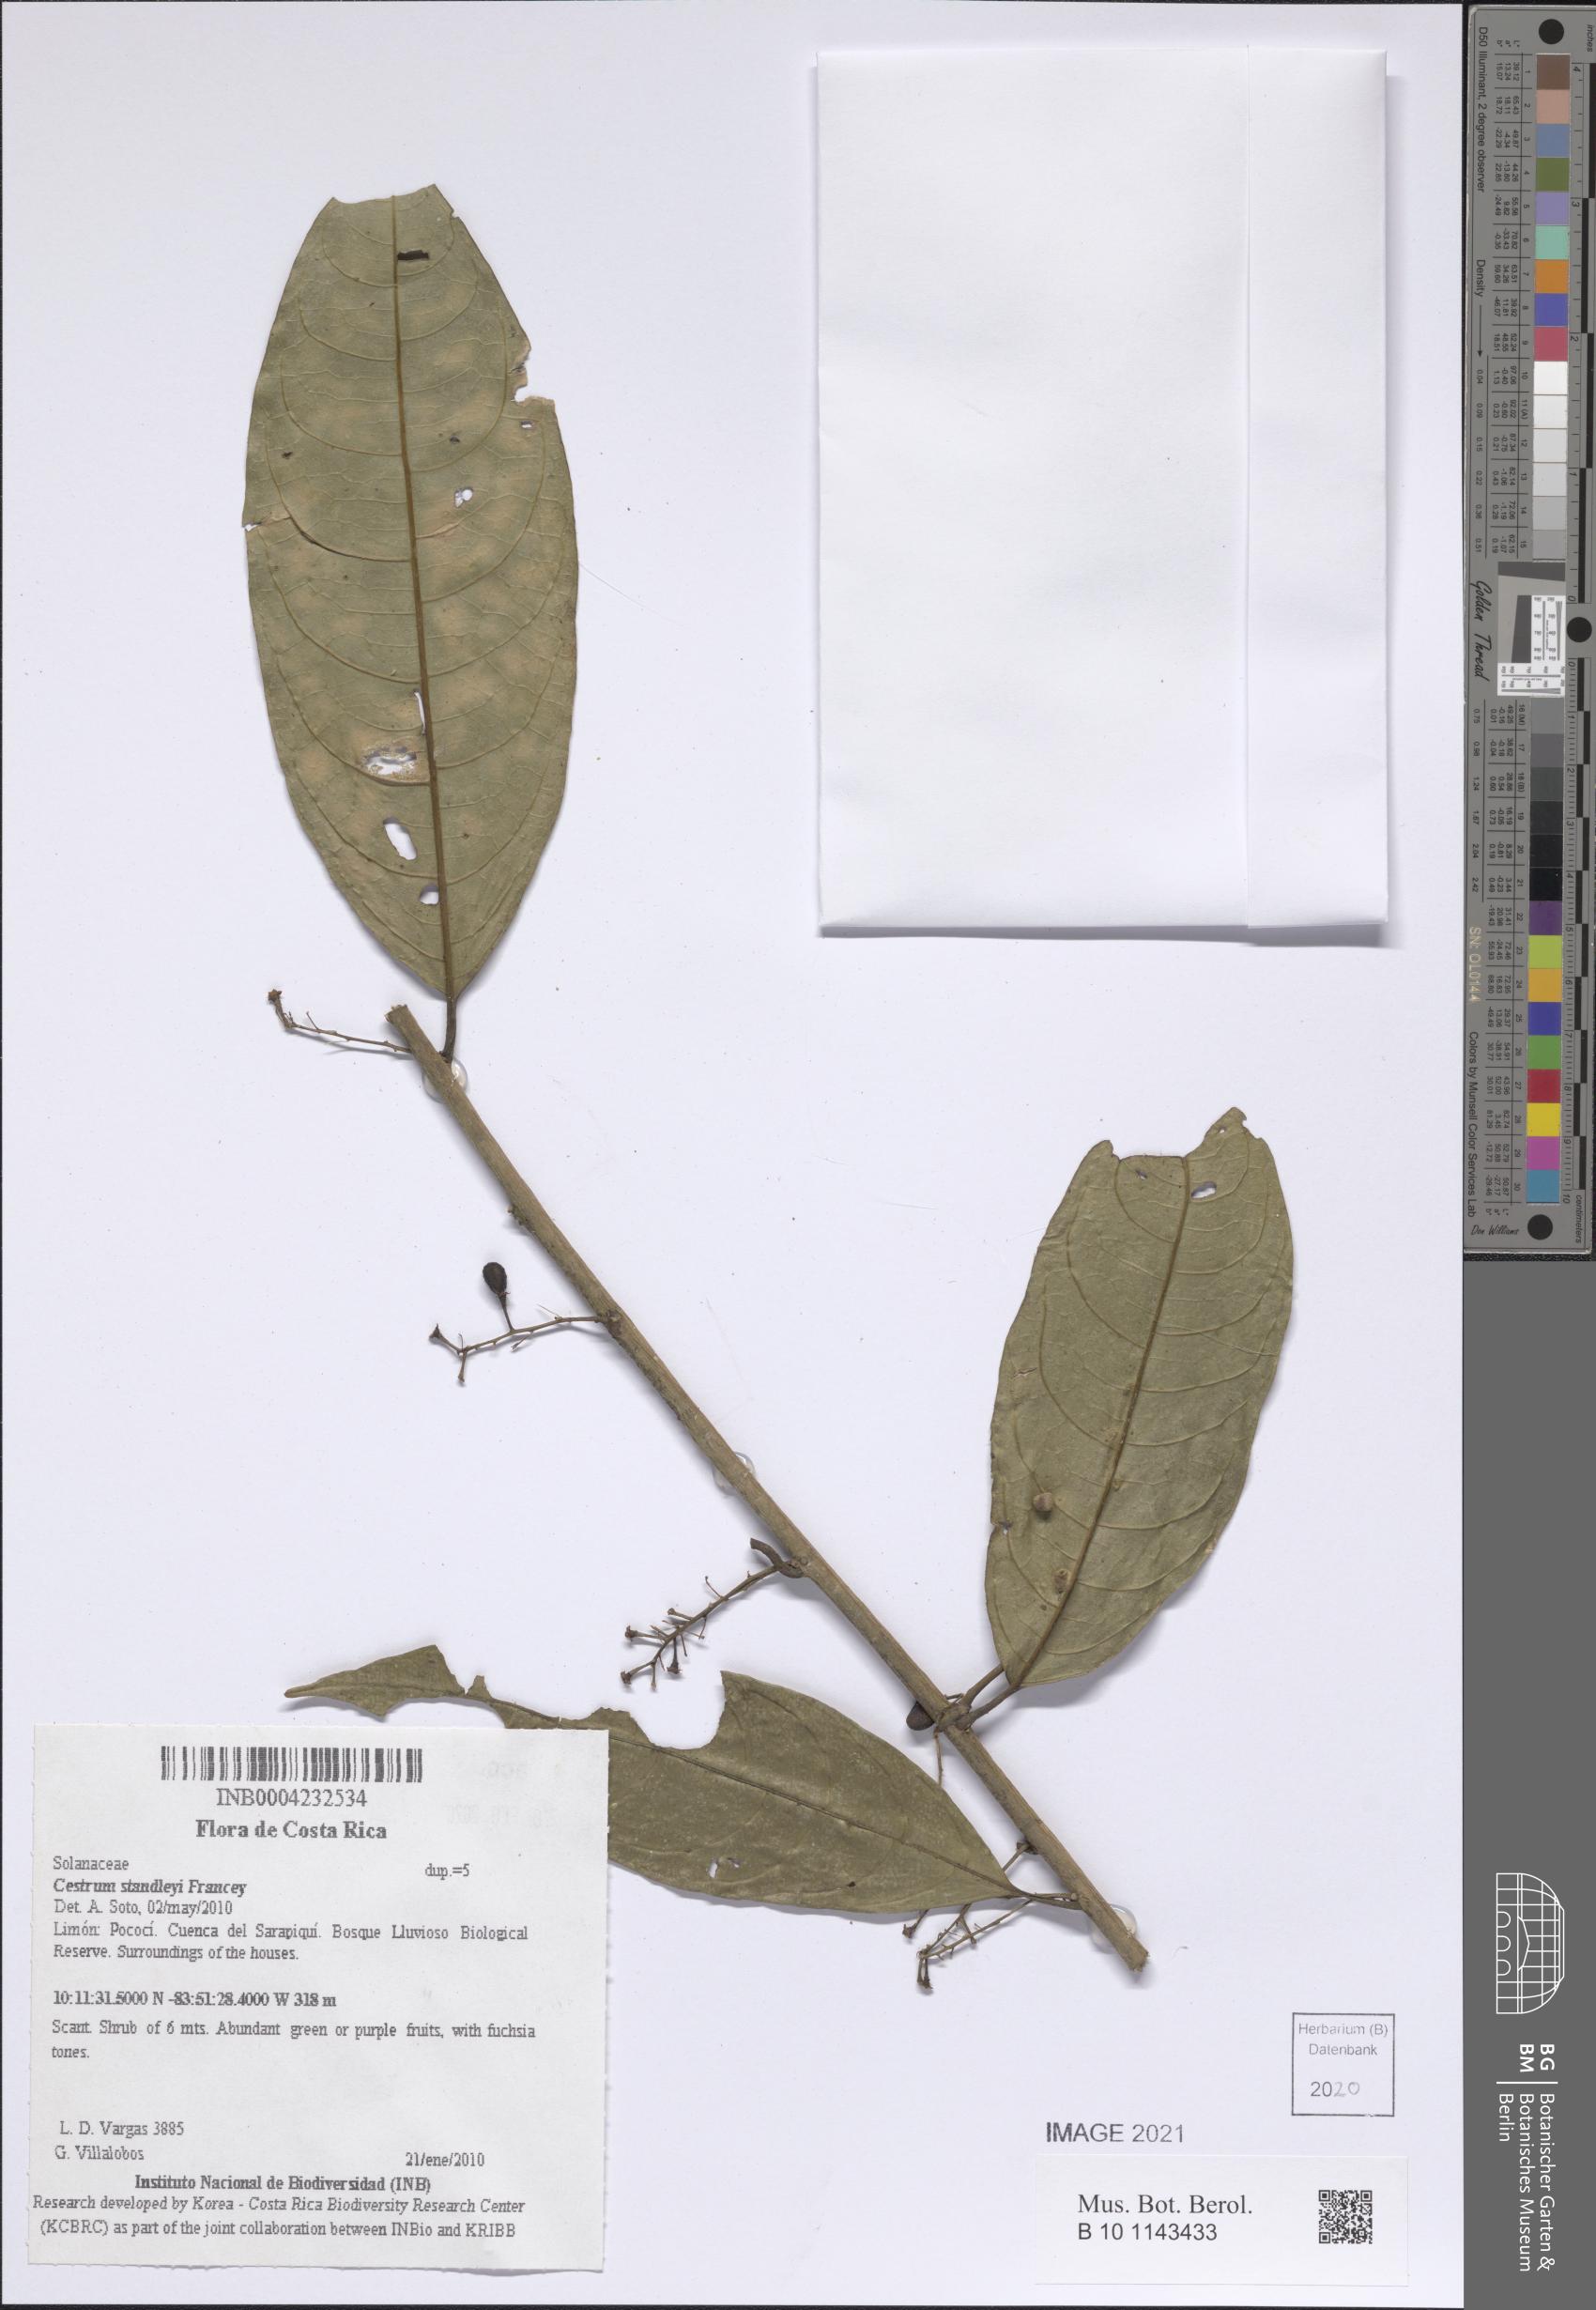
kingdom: Plantae
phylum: Tracheophyta
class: Magnoliopsida
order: Solanales
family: Solanaceae
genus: Cestrum
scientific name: Cestrum
